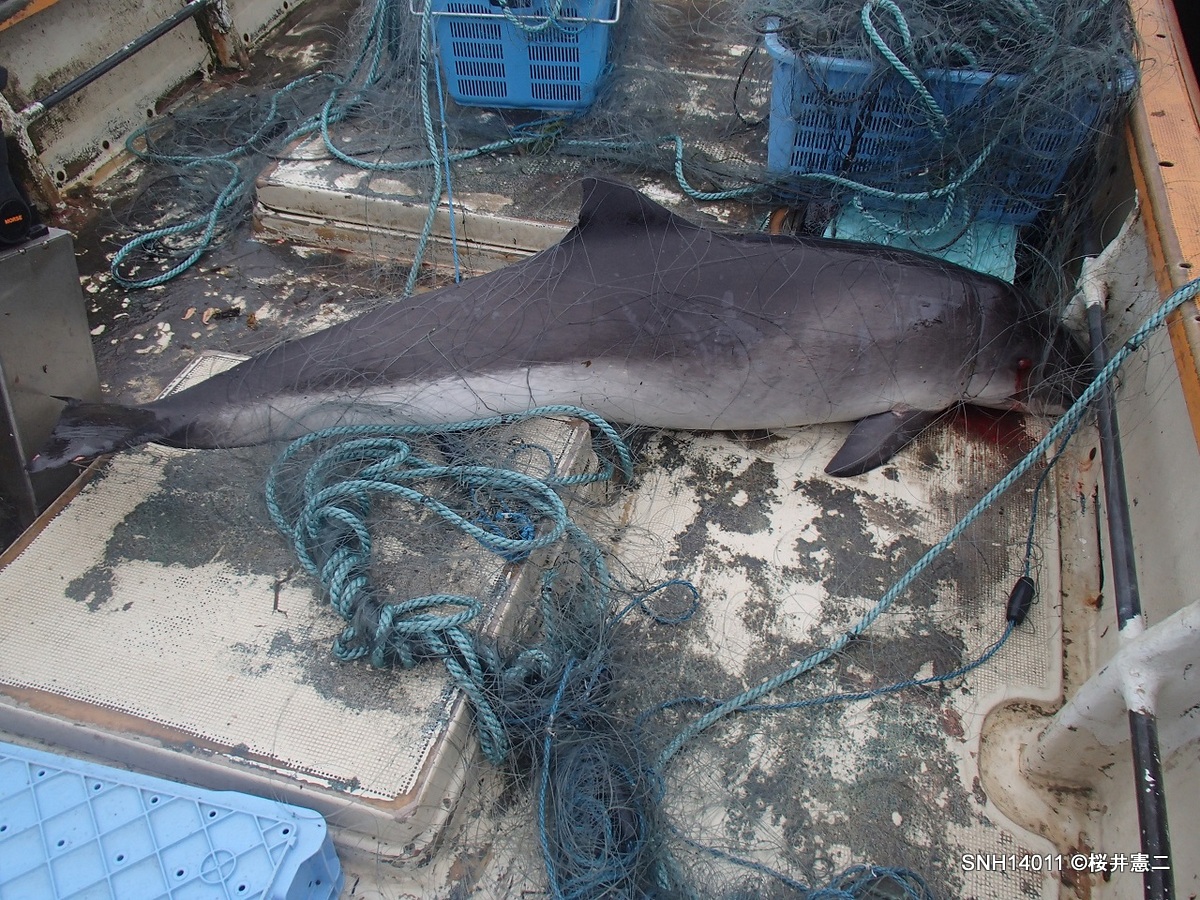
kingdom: Animalia
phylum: Chordata
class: Mammalia
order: Cetacea
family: Phocoenidae
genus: Phocoena
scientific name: Phocoena phocoena
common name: Harbour porpoise
